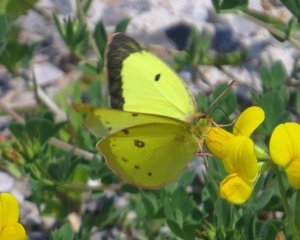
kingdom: Animalia
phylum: Arthropoda
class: Insecta
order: Lepidoptera
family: Pieridae
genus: Colias
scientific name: Colias philodice
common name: Clouded Sulphur
